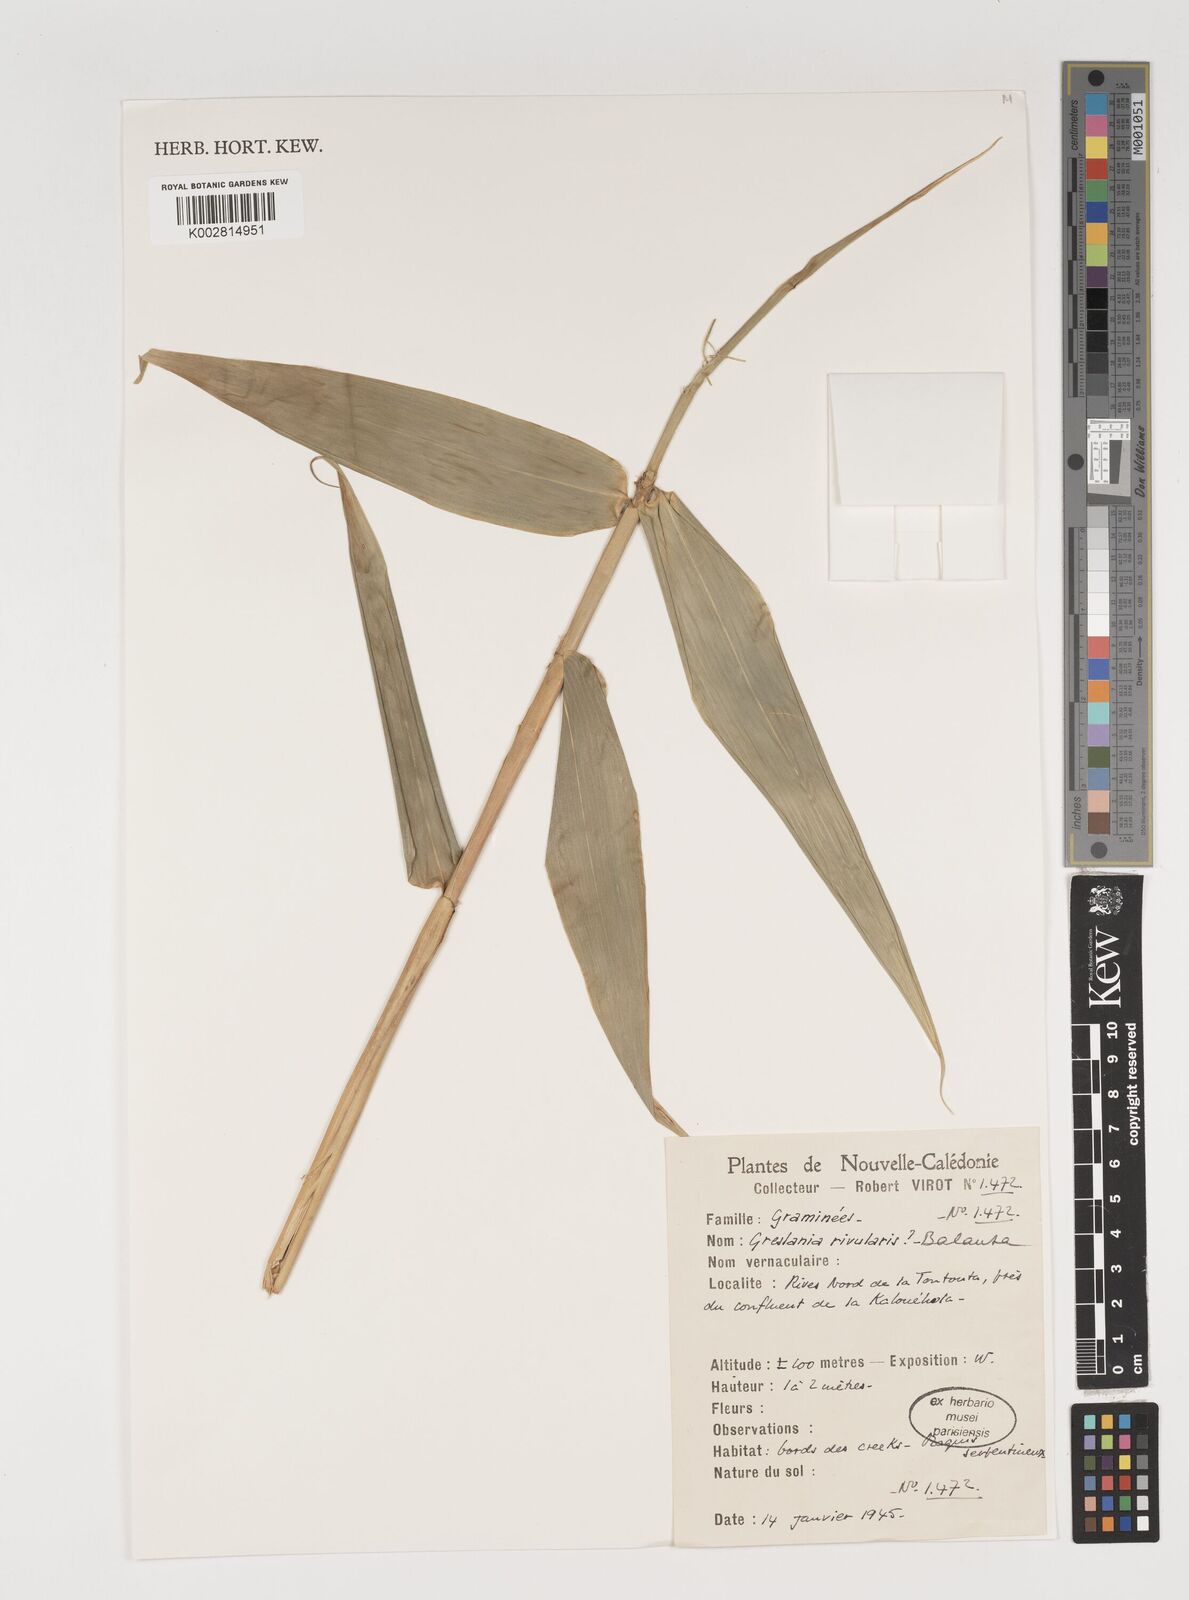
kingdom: Plantae
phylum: Tracheophyta
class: Liliopsida
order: Poales
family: Poaceae
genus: Greslania
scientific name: Greslania rivularis
